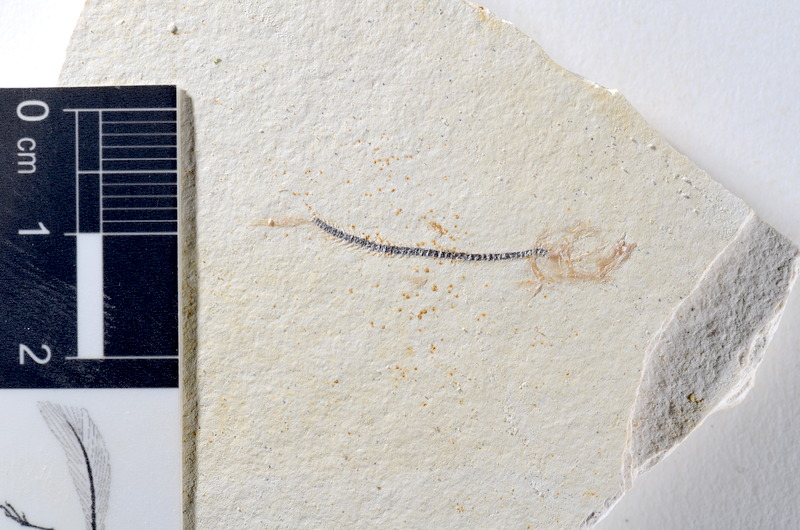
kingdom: Animalia
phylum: Chordata
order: Salmoniformes
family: Orthogonikleithridae
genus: Orthogonikleithrus
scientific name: Orthogonikleithrus hoelli
